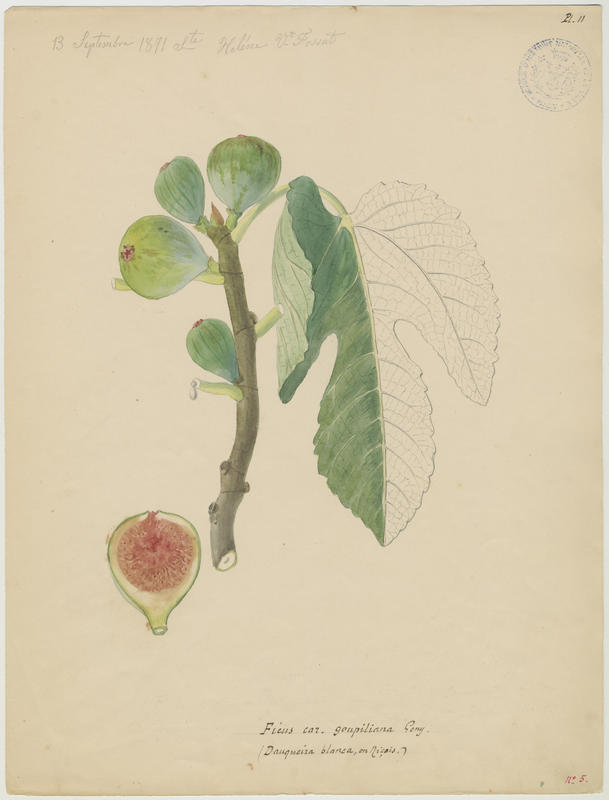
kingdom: Plantae
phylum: Tracheophyta
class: Magnoliopsida
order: Rosales
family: Moraceae
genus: Ficus
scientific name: Ficus carica
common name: Fig
